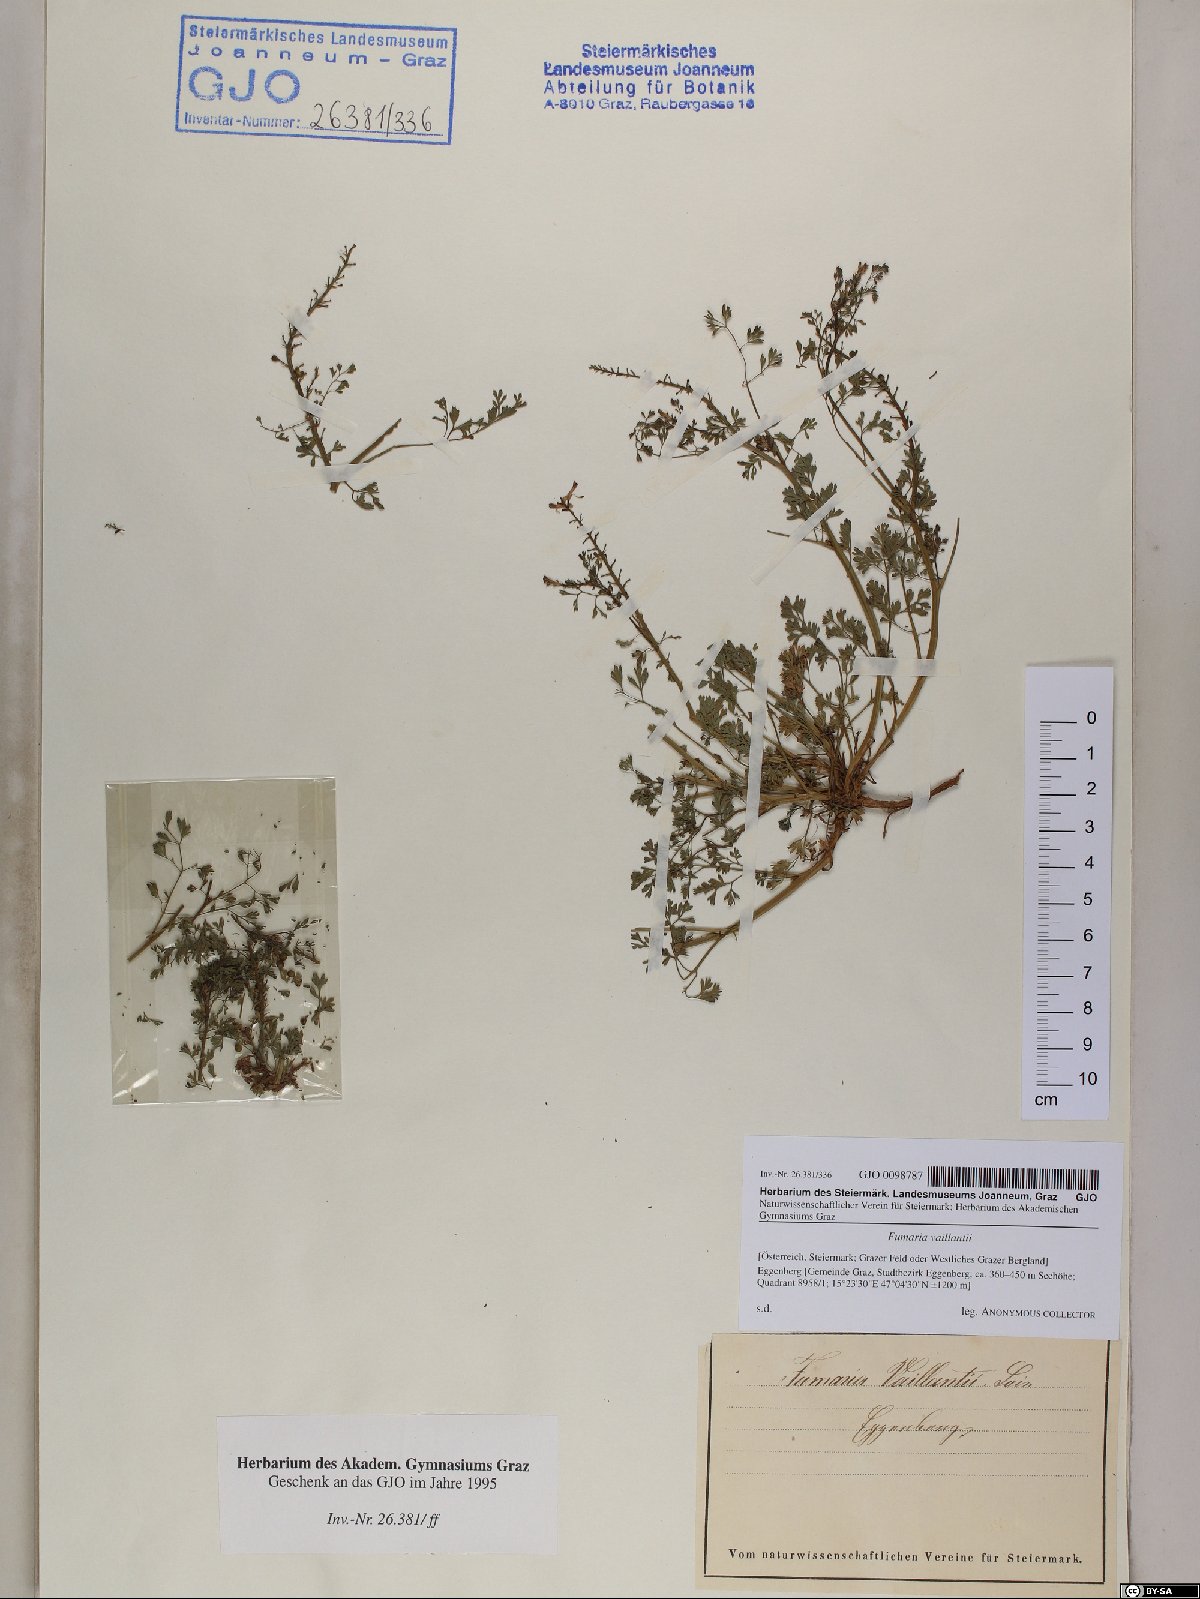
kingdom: Plantae
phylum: Tracheophyta
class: Magnoliopsida
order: Ranunculales
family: Papaveraceae
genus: Fumaria
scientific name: Fumaria vaillantii
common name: Few-flowered fumitory
